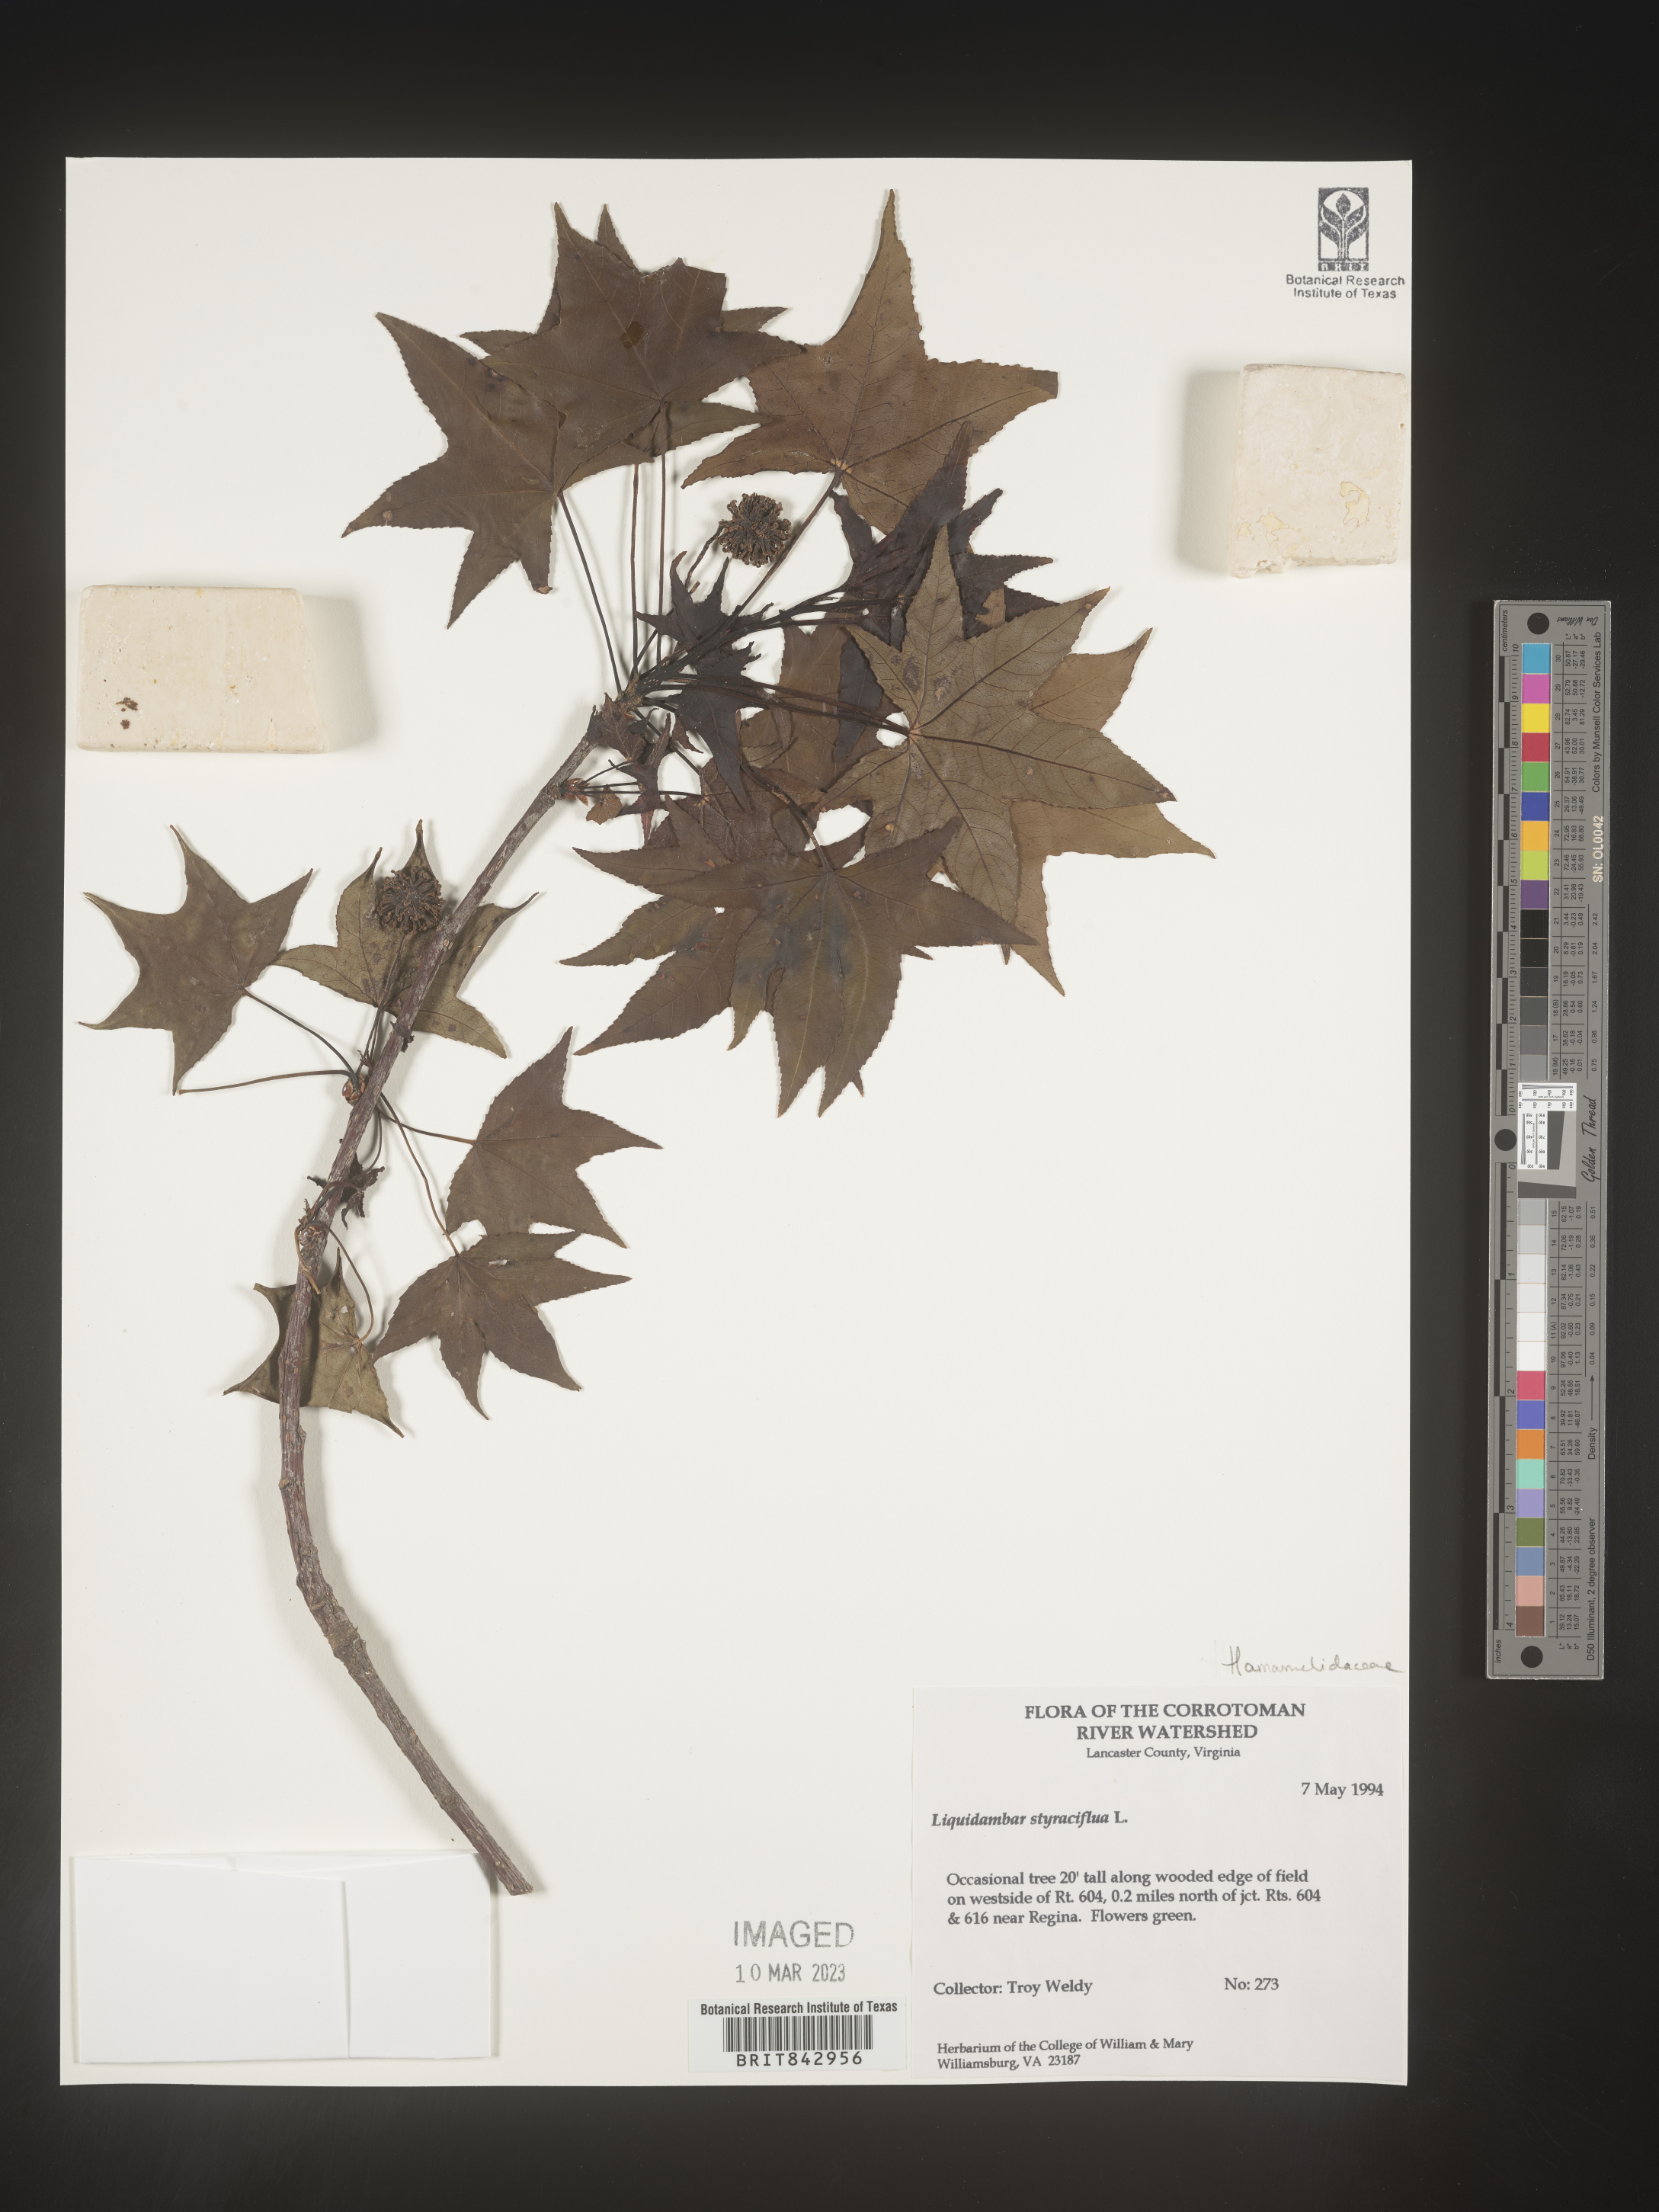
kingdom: Plantae
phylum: Tracheophyta
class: Magnoliopsida
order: Saxifragales
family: Altingiaceae
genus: Liquidambar
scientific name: Liquidambar styraciflua
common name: Sweet gum
